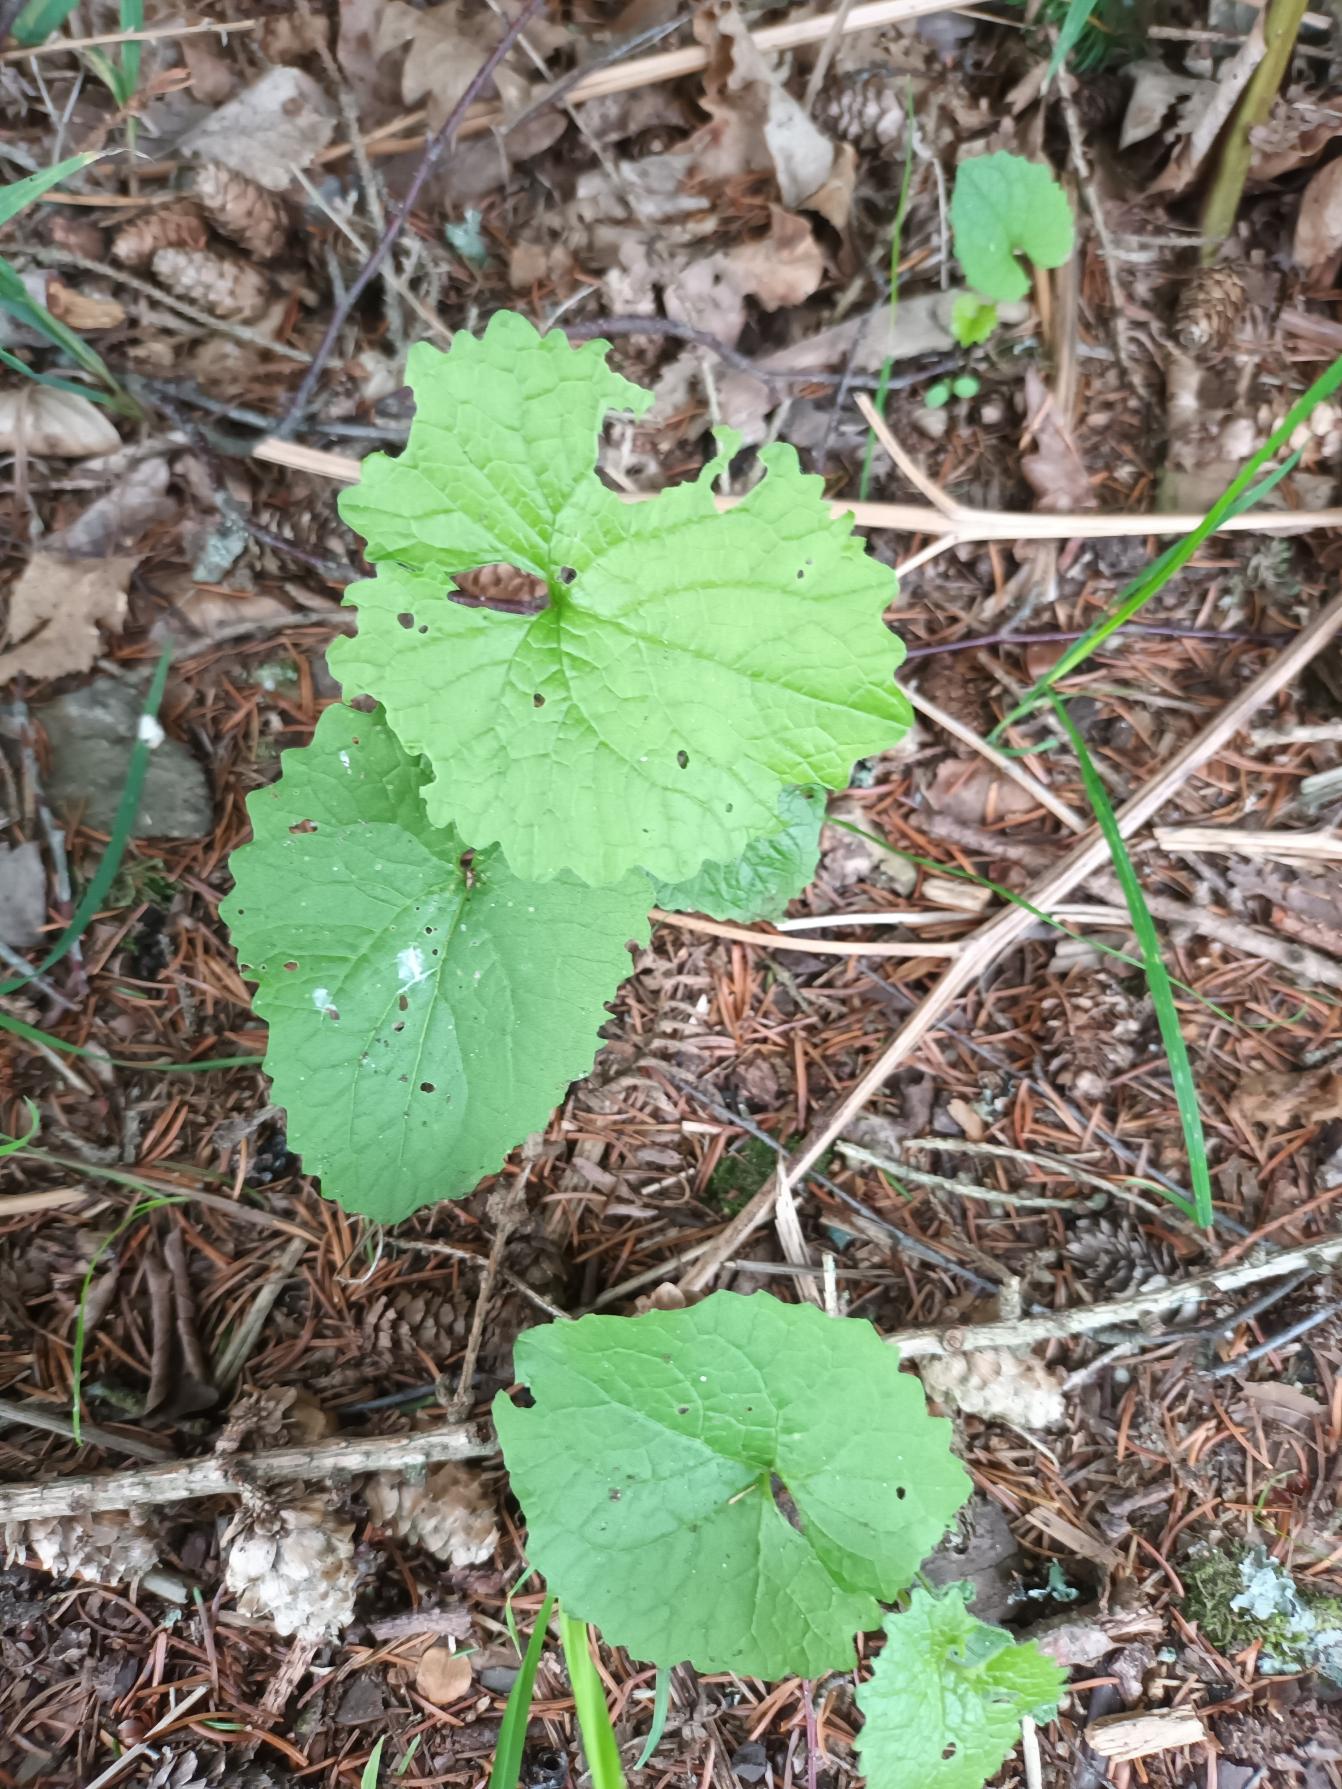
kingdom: Plantae
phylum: Tracheophyta
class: Magnoliopsida
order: Brassicales
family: Brassicaceae
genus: Alliaria
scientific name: Alliaria petiolata
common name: Løgkarse
